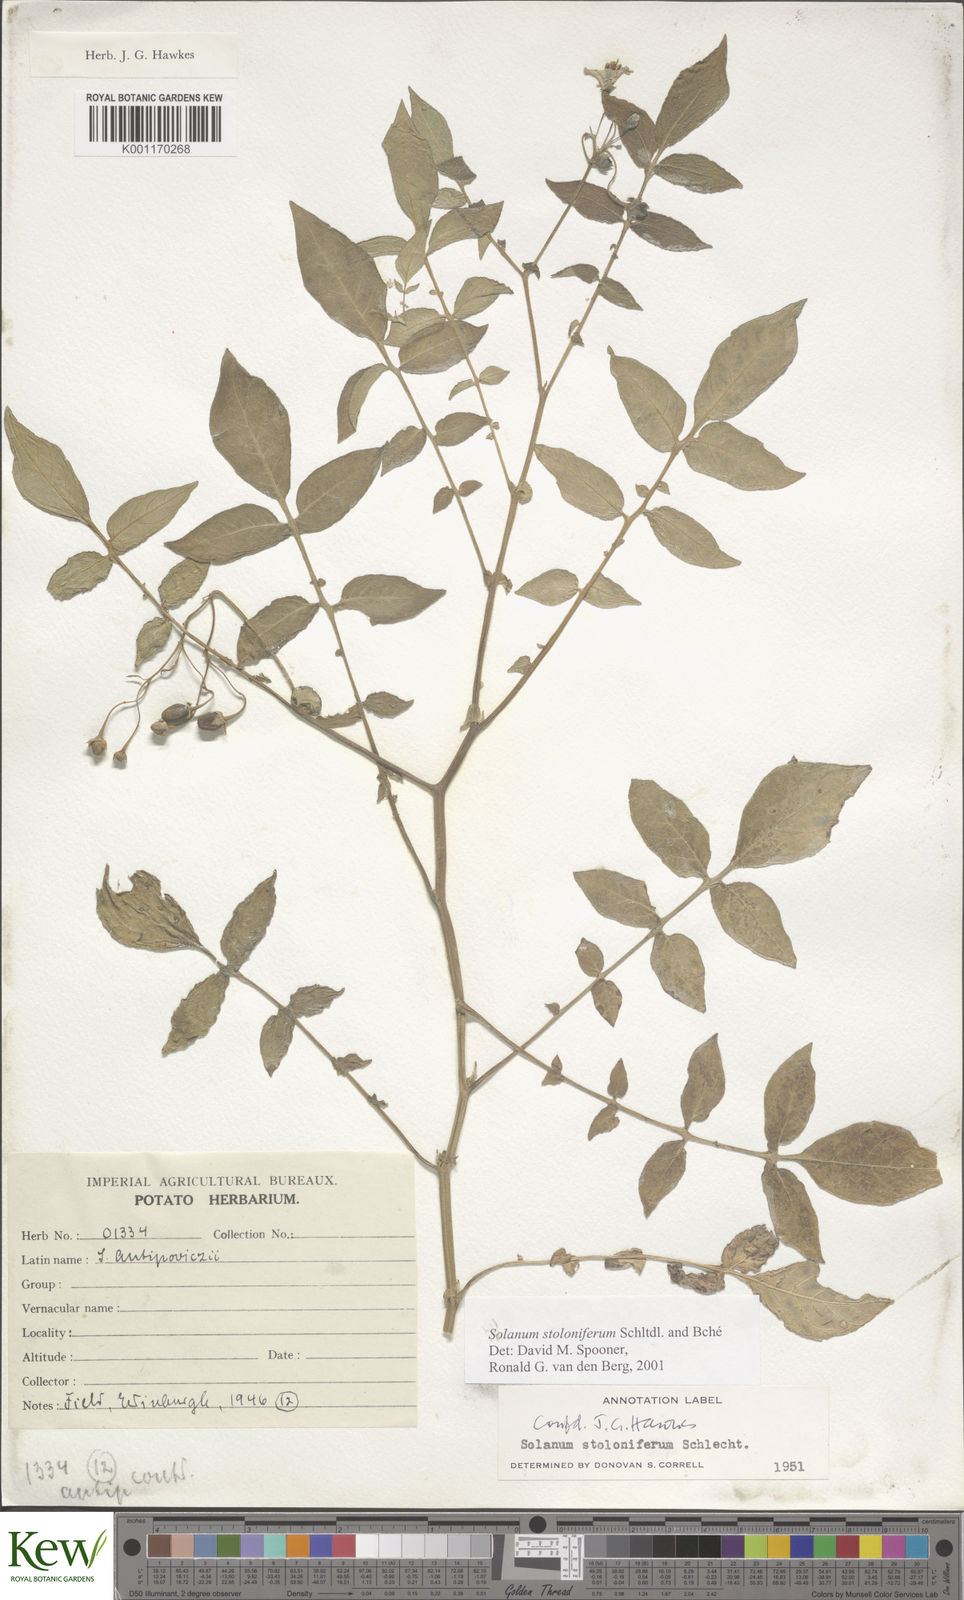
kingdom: Plantae
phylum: Tracheophyta
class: Magnoliopsida
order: Solanales
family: Solanaceae
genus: Solanum
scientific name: Solanum stoloniferum
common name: Fendler's nighshade
